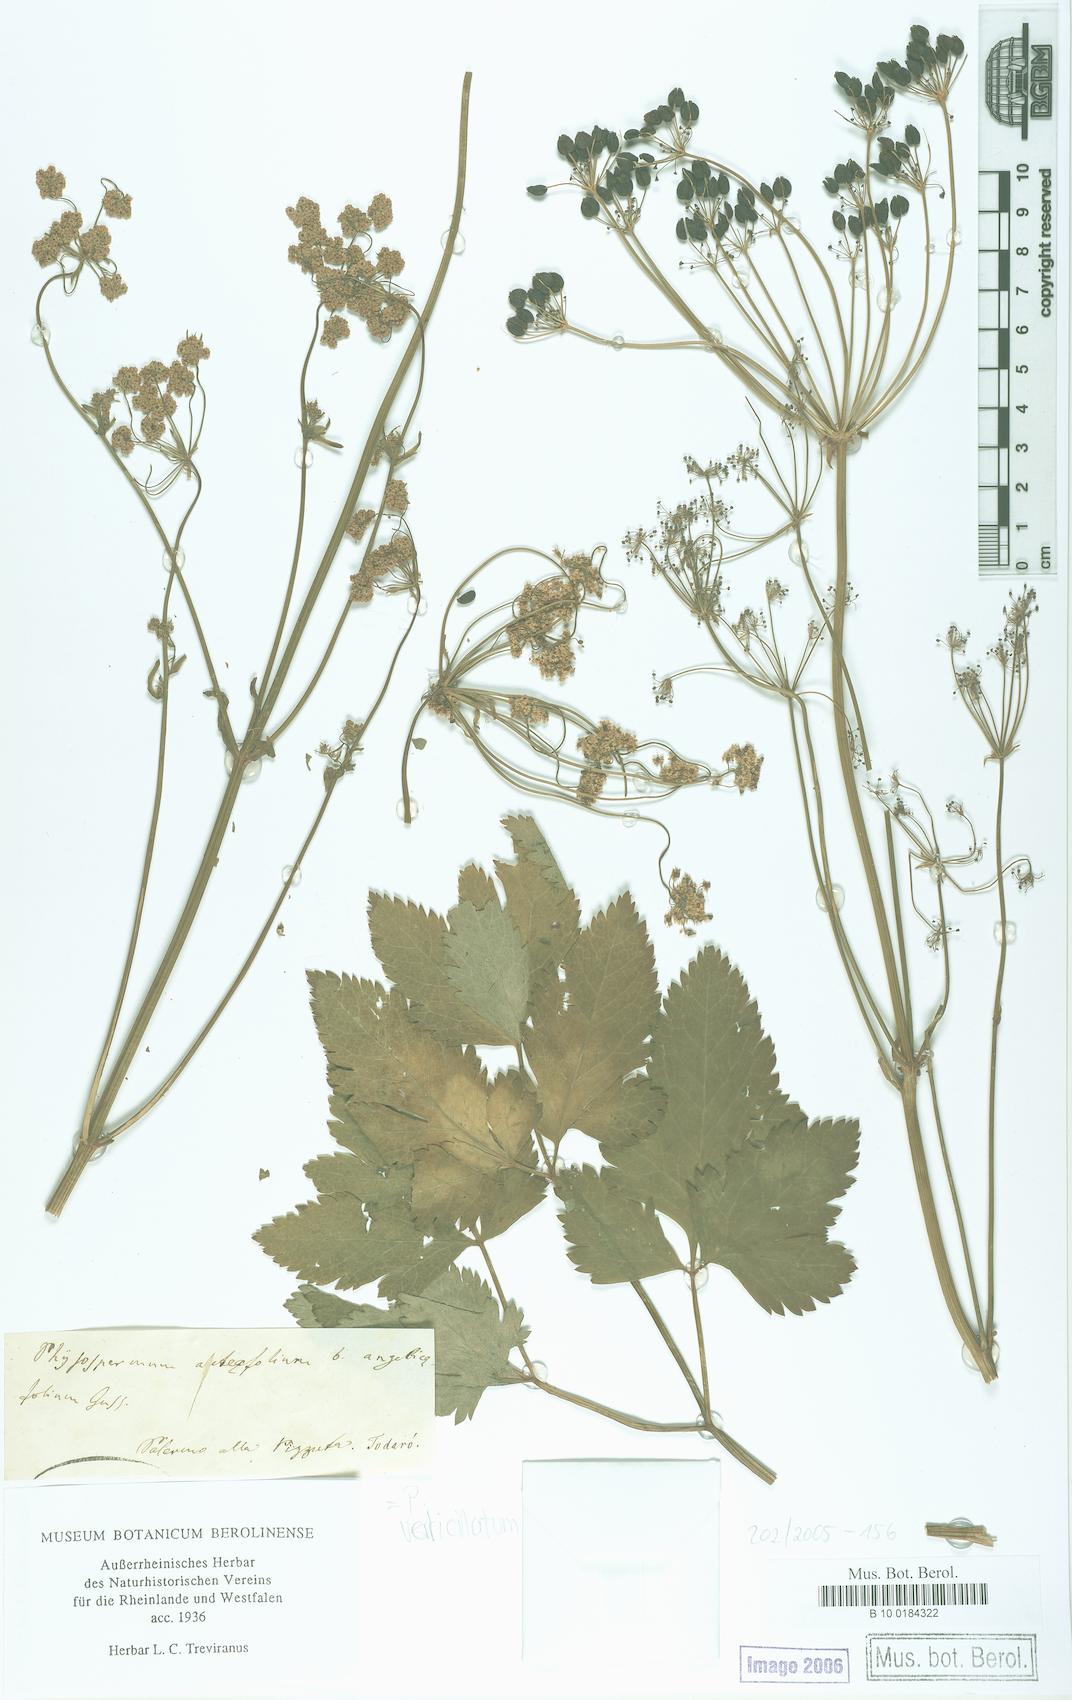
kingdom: Plantae
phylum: Tracheophyta
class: Magnoliopsida
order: Apiales
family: Apiaceae
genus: Phlojodicarpus
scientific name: Phlojodicarpus
